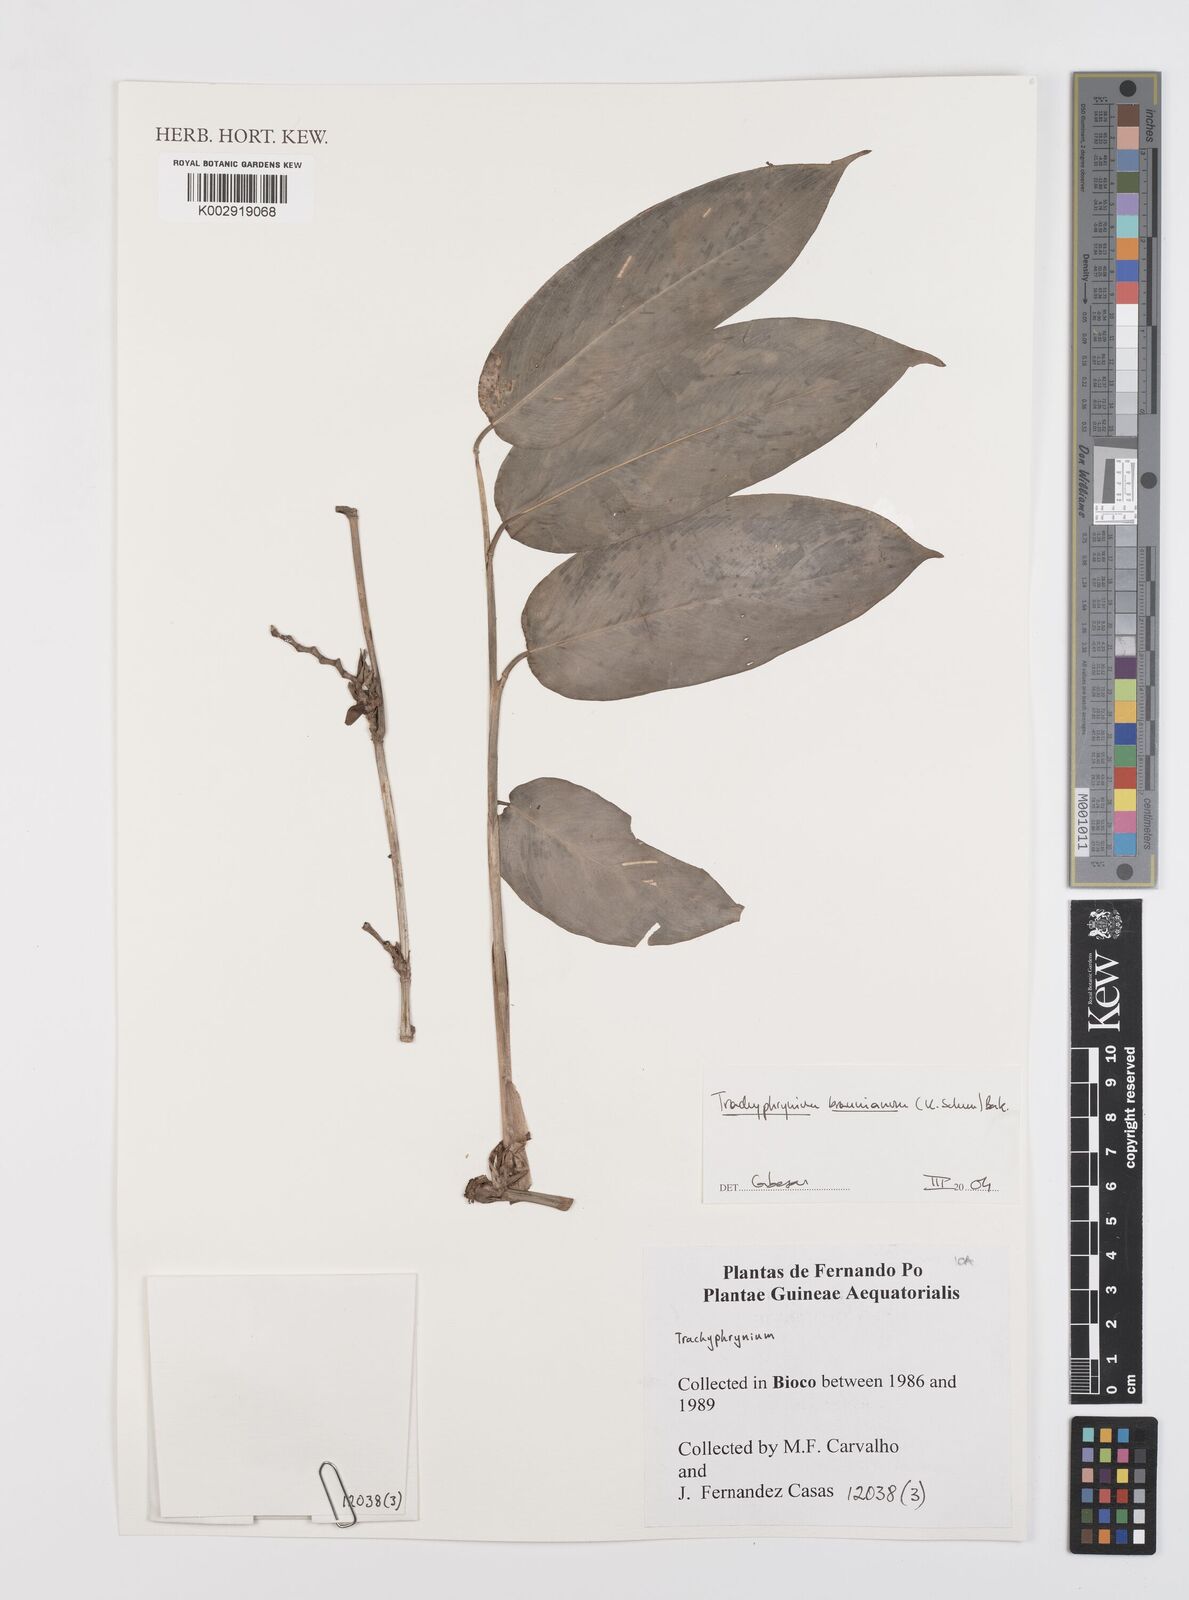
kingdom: Plantae
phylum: Tracheophyta
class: Liliopsida
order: Zingiberales
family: Marantaceae
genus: Trachyphrynium
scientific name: Trachyphrynium braunianum
